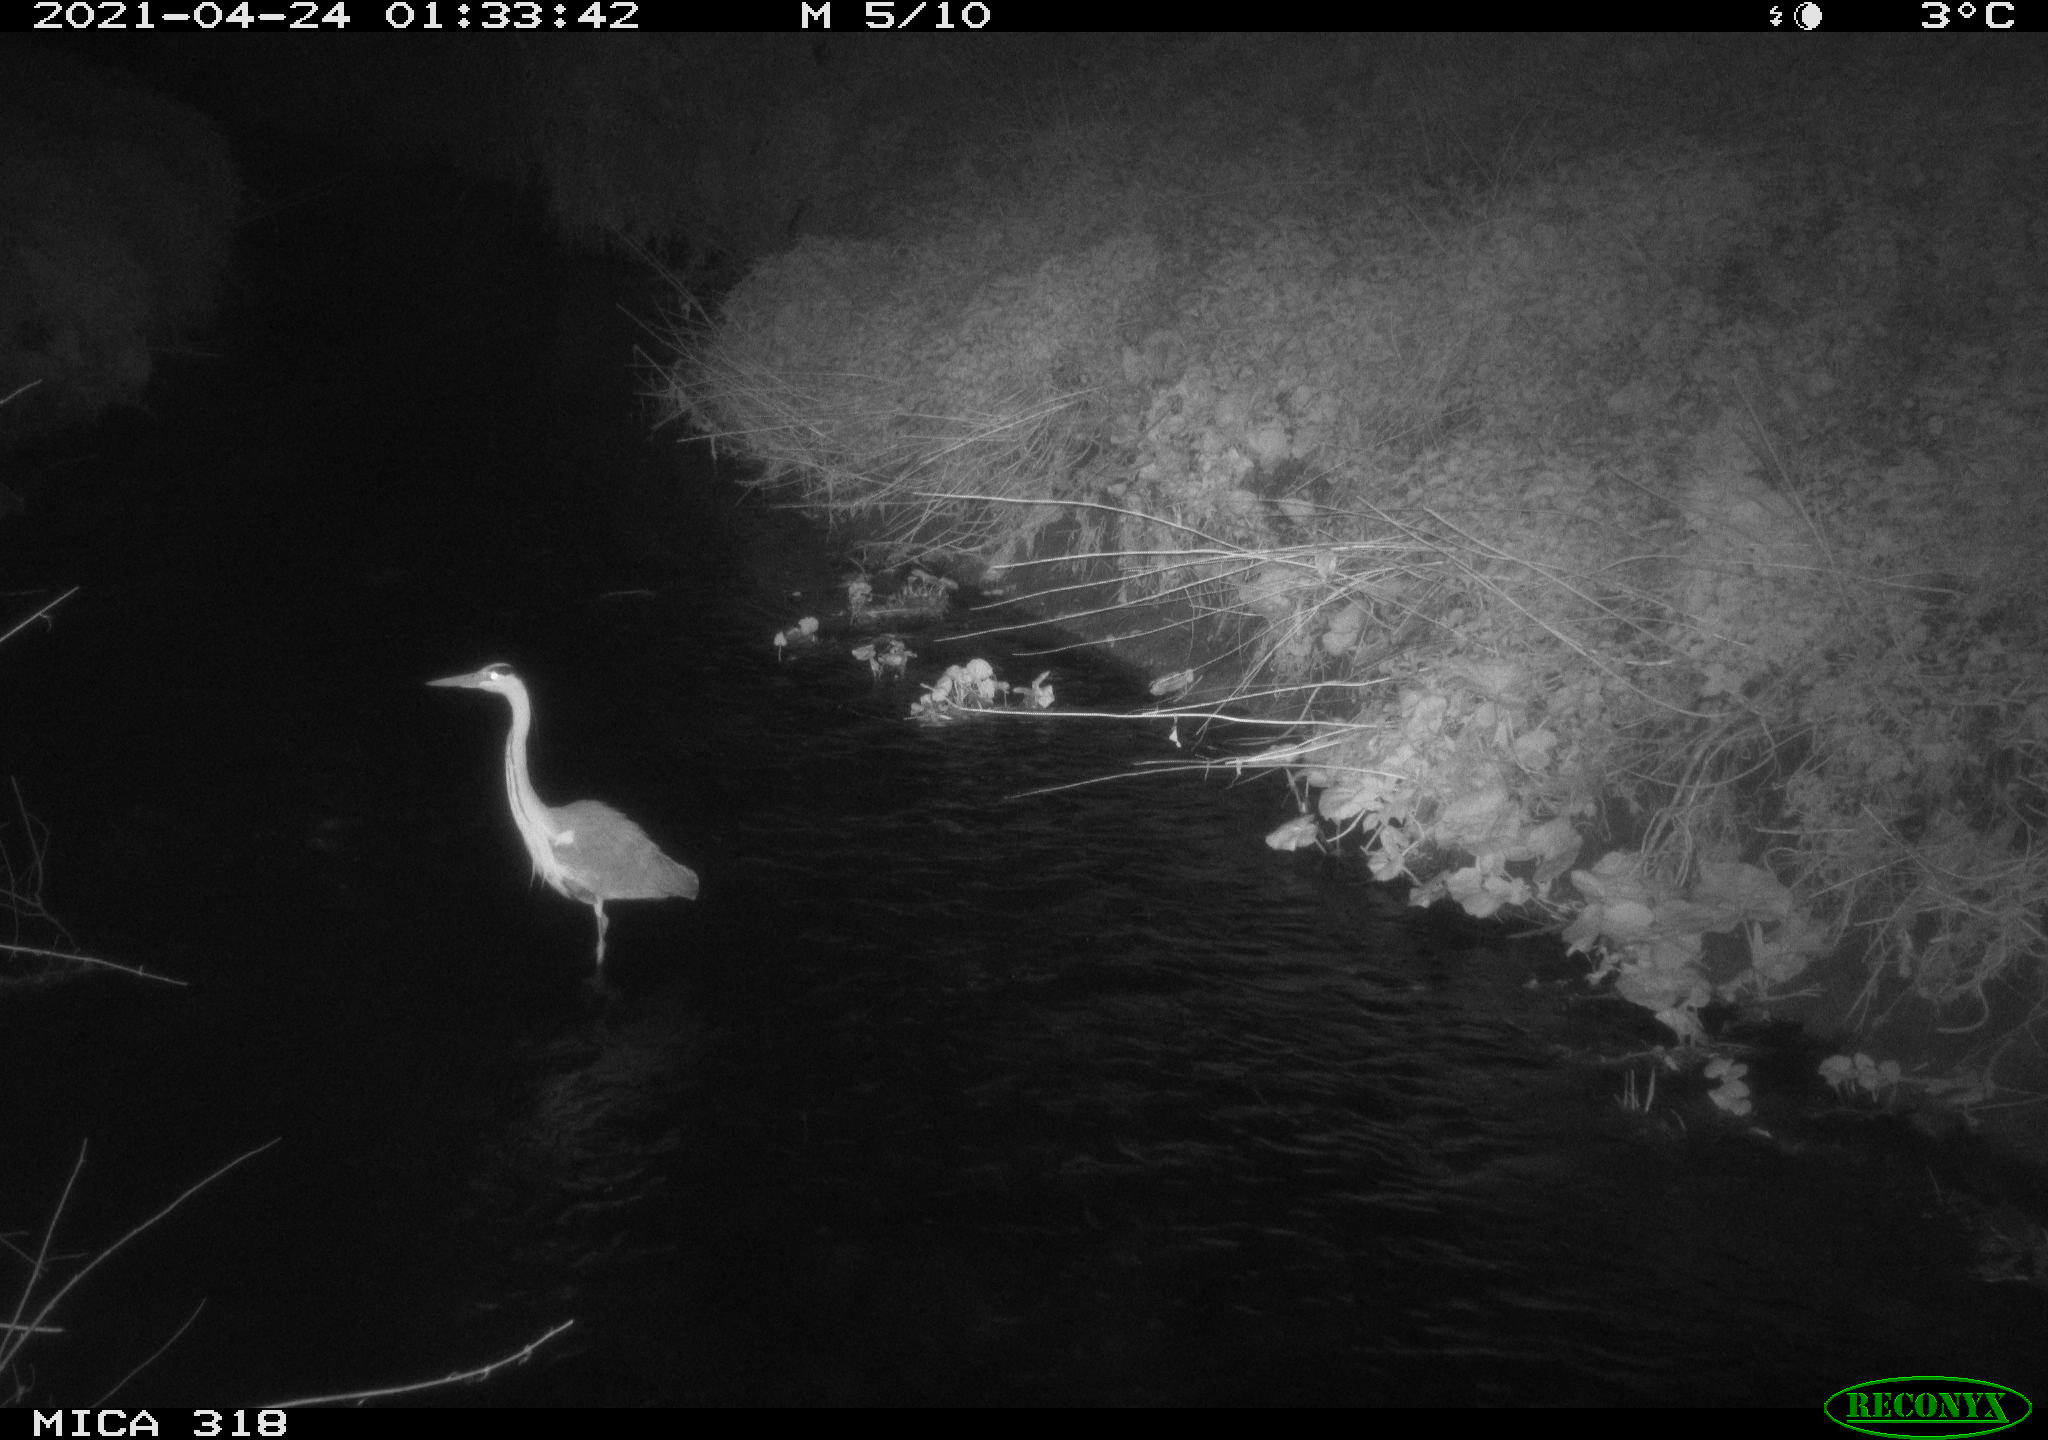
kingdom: Animalia
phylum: Chordata
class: Aves
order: Pelecaniformes
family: Ardeidae
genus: Ardea
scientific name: Ardea
